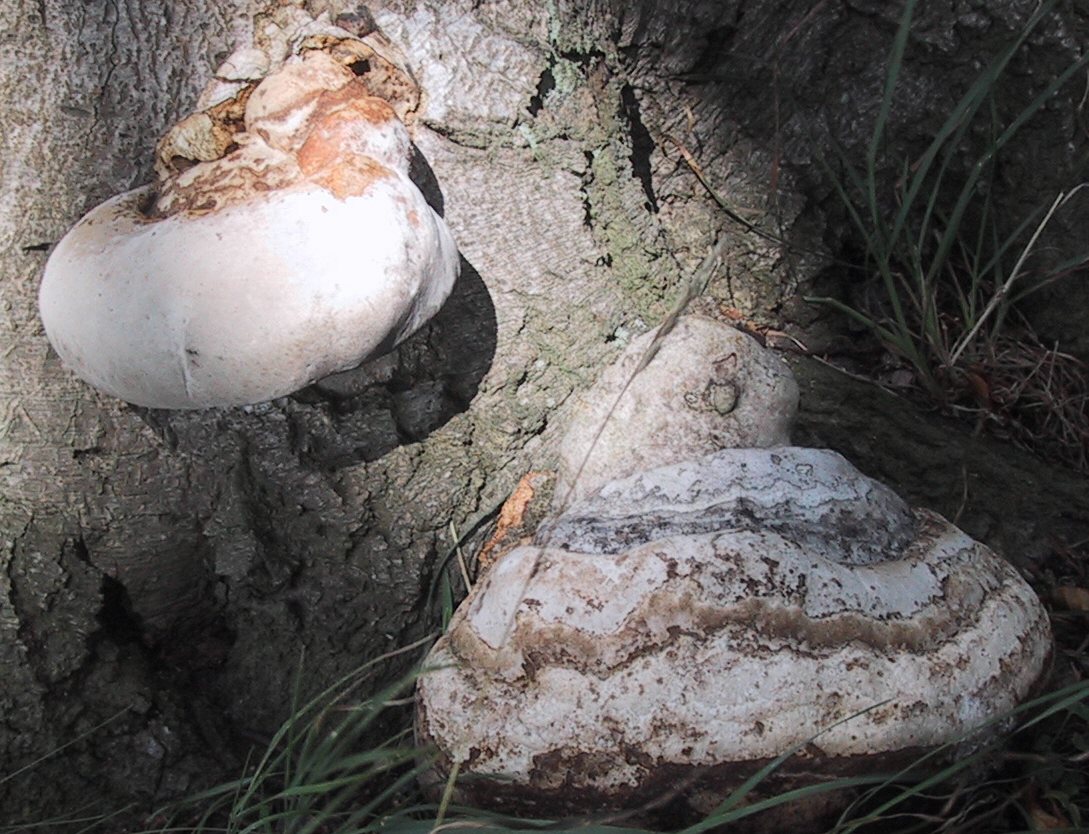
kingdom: Fungi
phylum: Basidiomycota
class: Agaricomycetes
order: Polyporales
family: Polyporaceae
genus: Fomes
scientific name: Fomes fomentarius
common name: tøndersvamp
